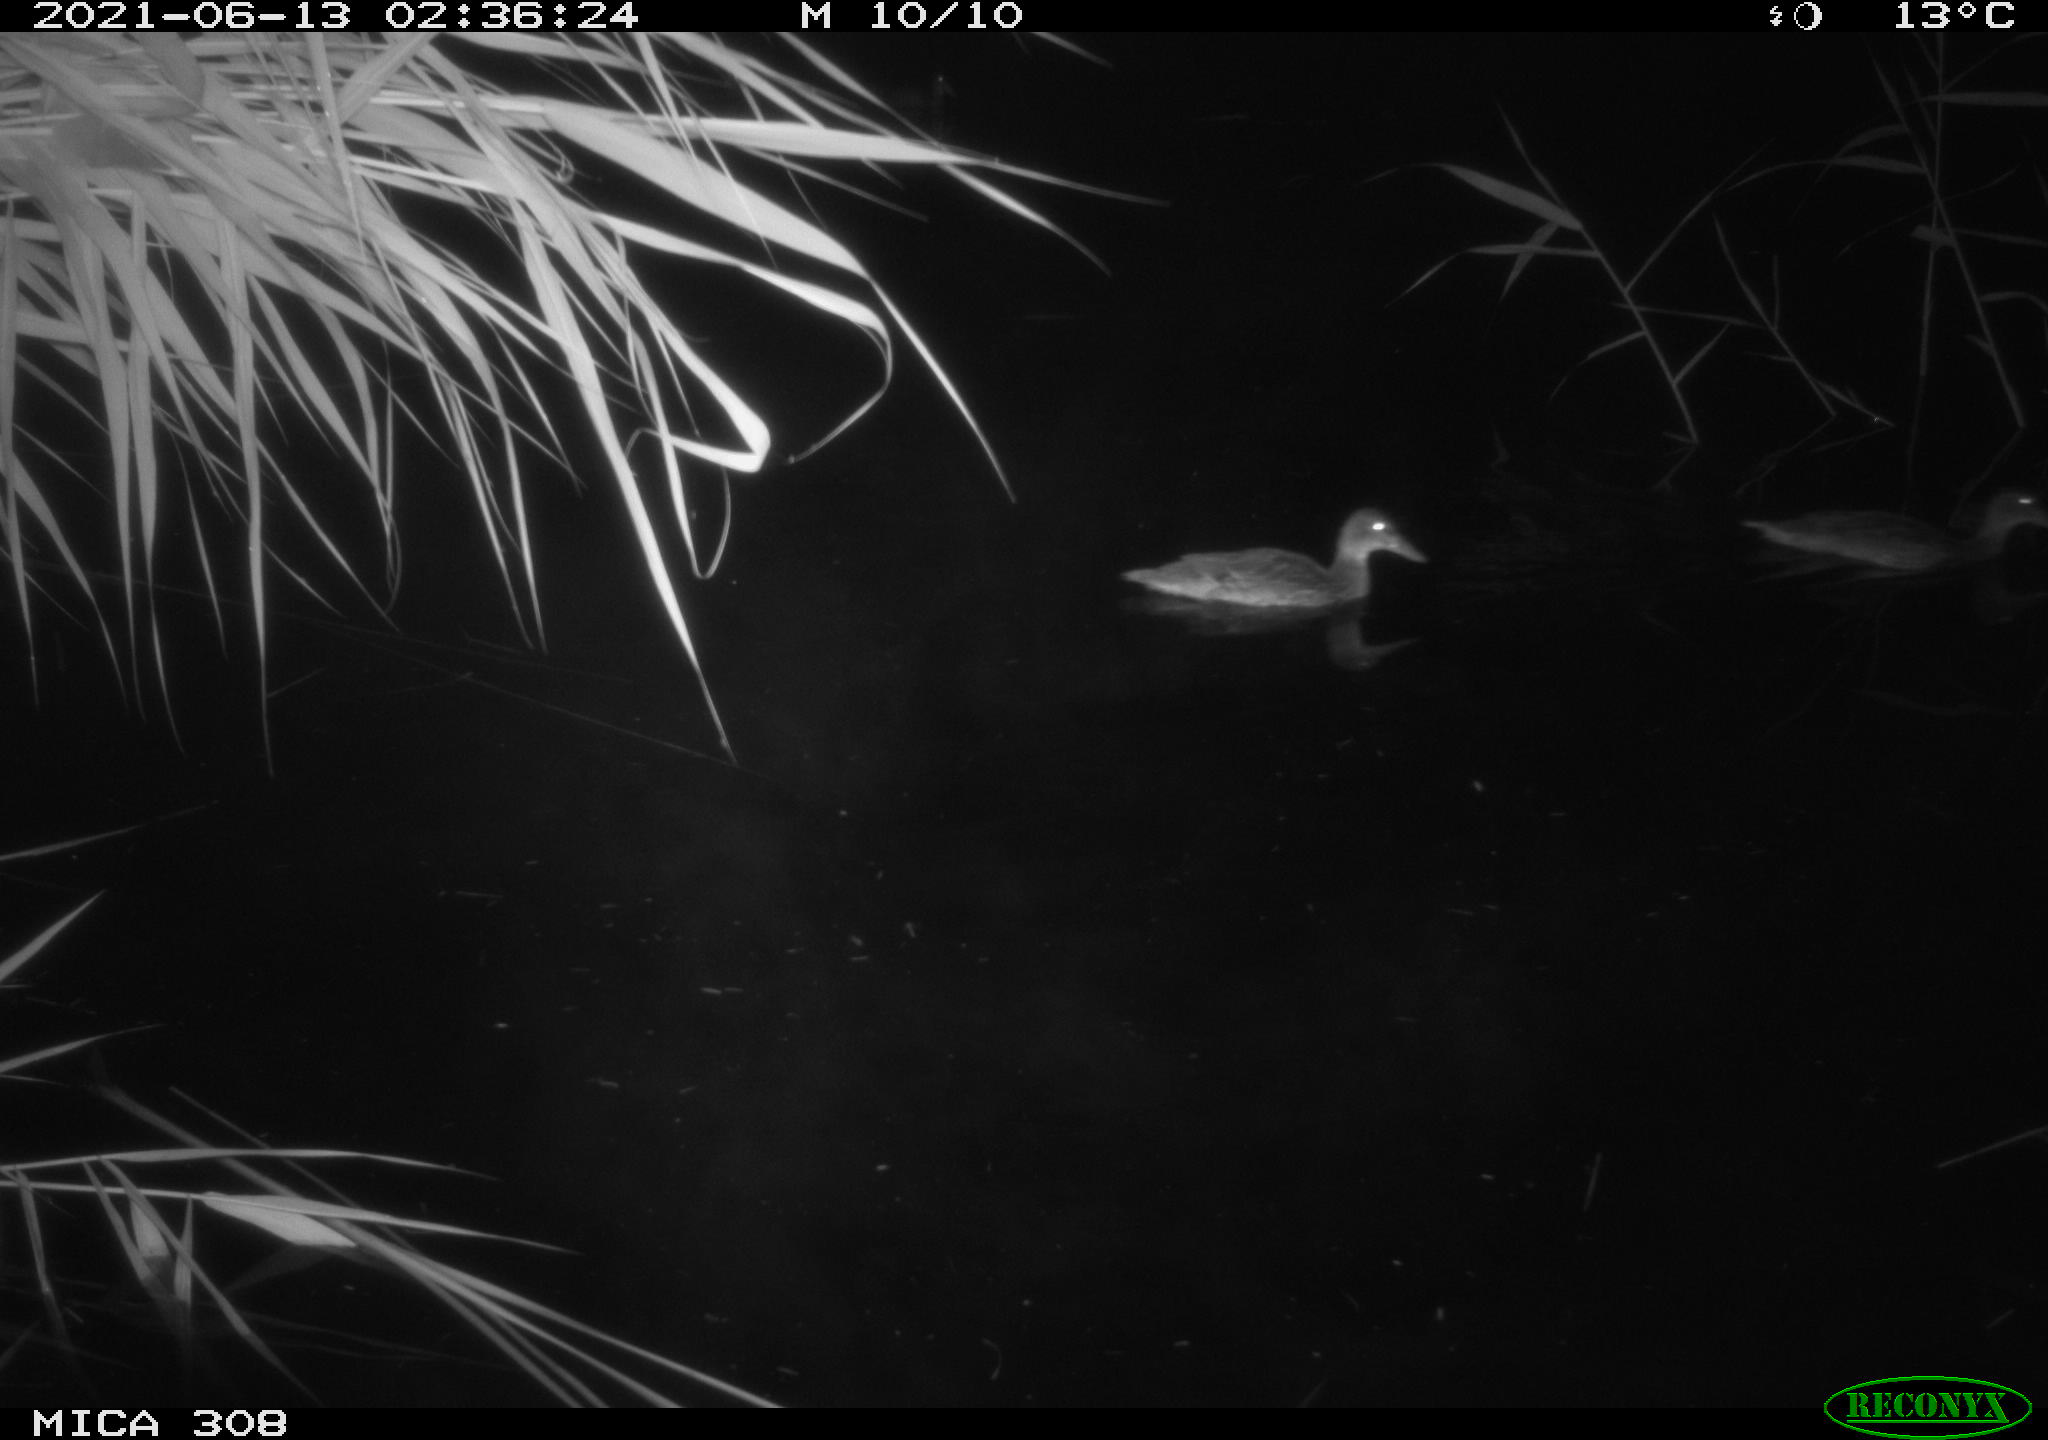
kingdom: Animalia
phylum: Chordata
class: Aves
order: Anseriformes
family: Anatidae
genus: Anas
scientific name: Anas platyrhynchos
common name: Mallard
